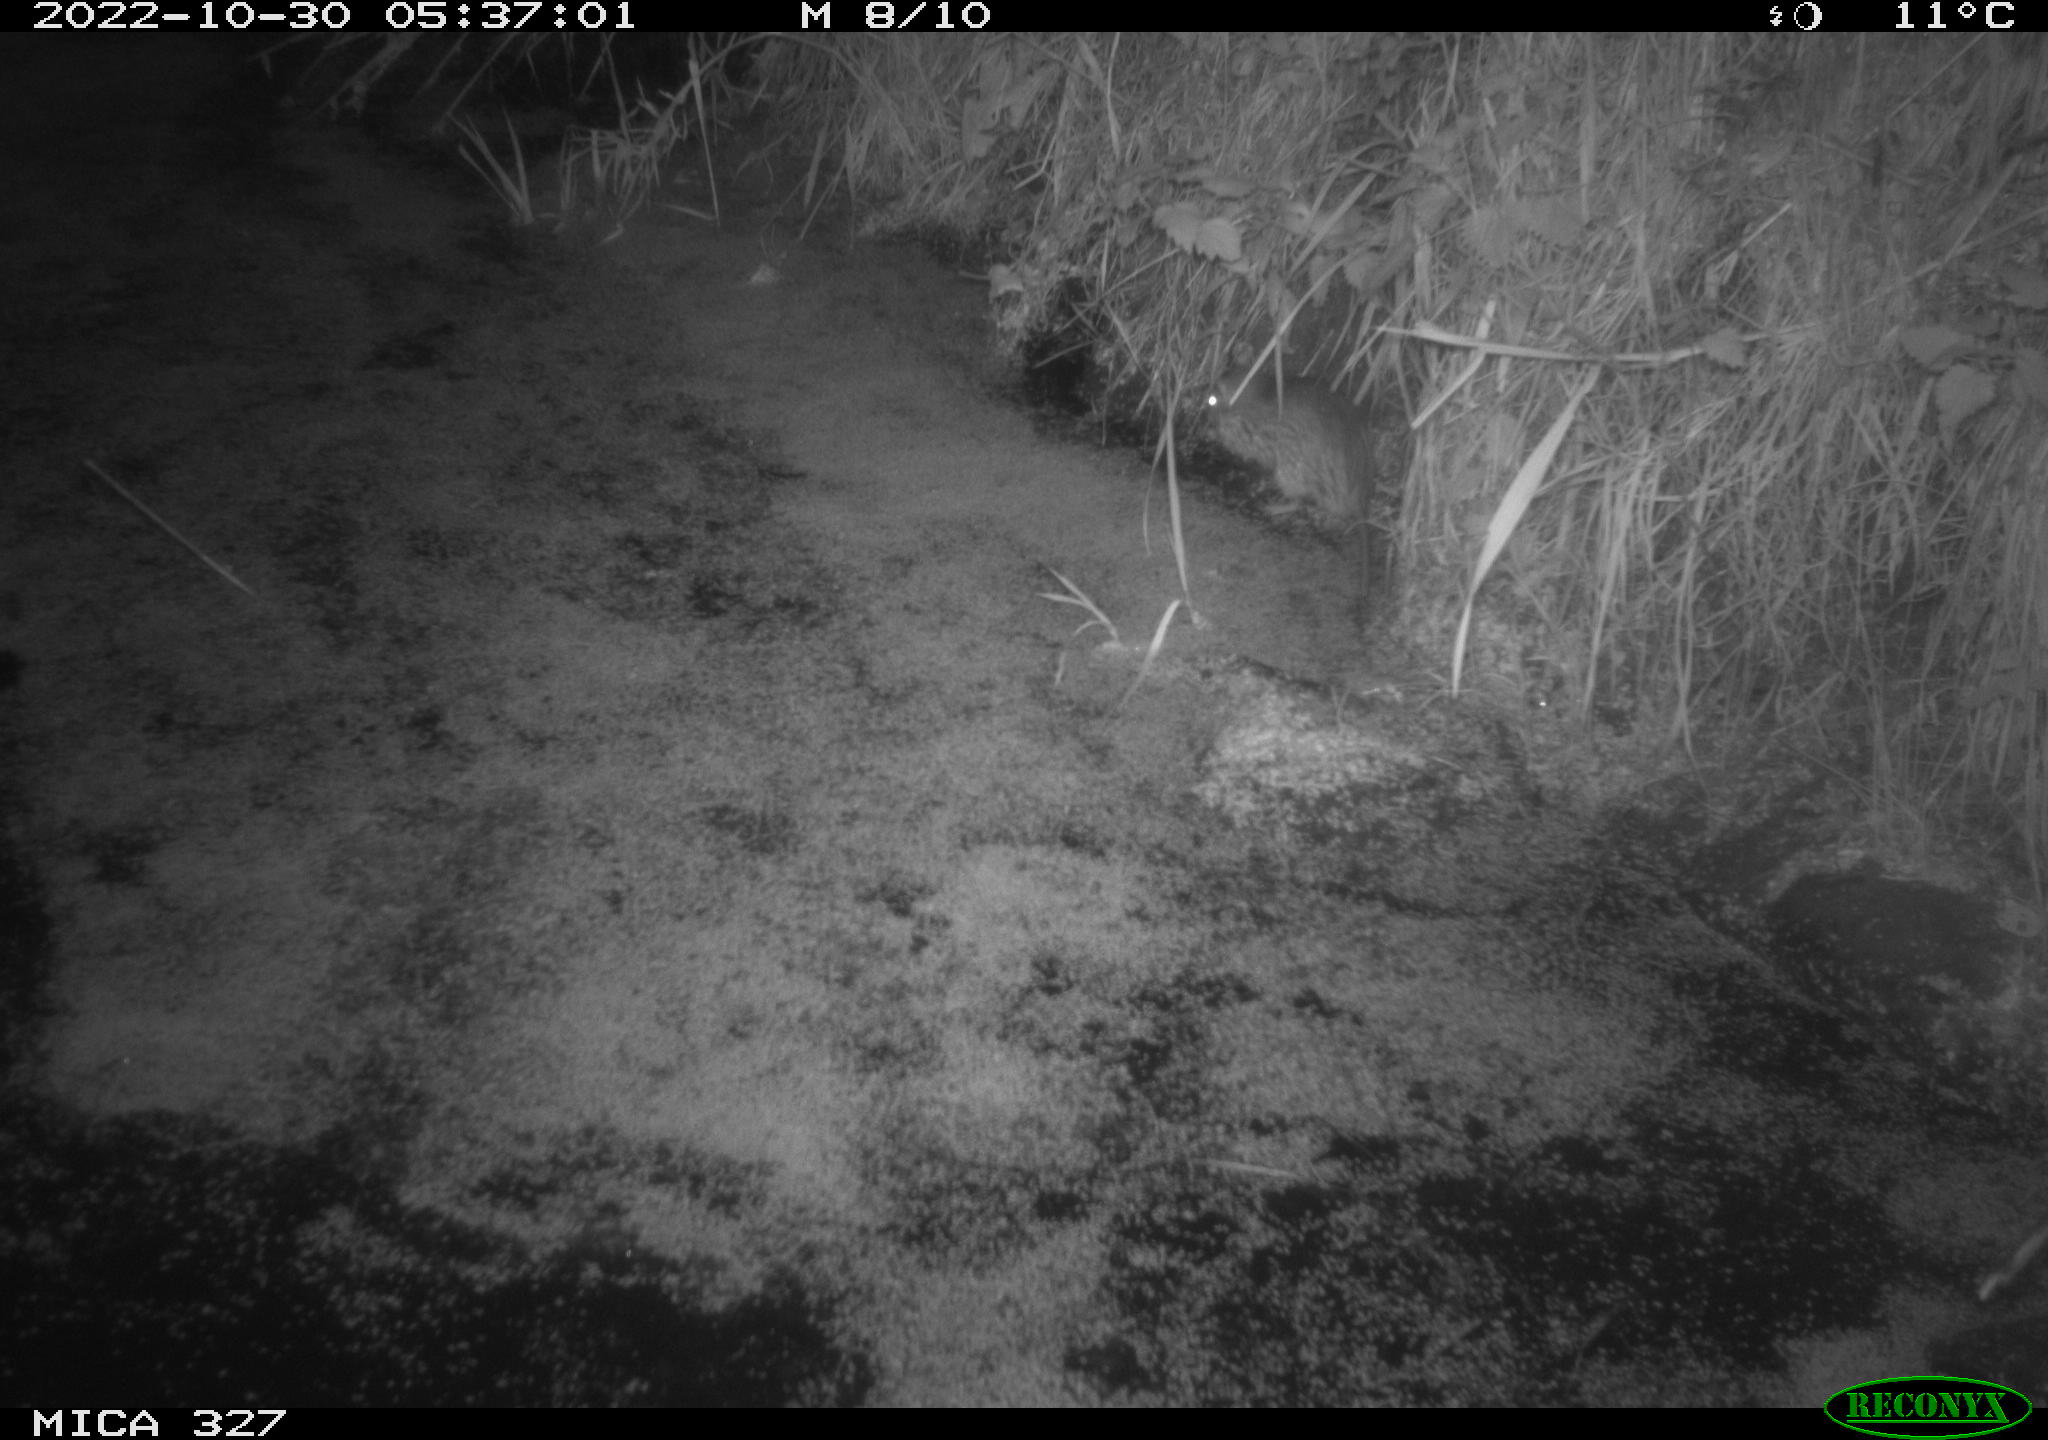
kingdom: Animalia
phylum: Chordata
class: Mammalia
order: Rodentia
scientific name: Rodentia
